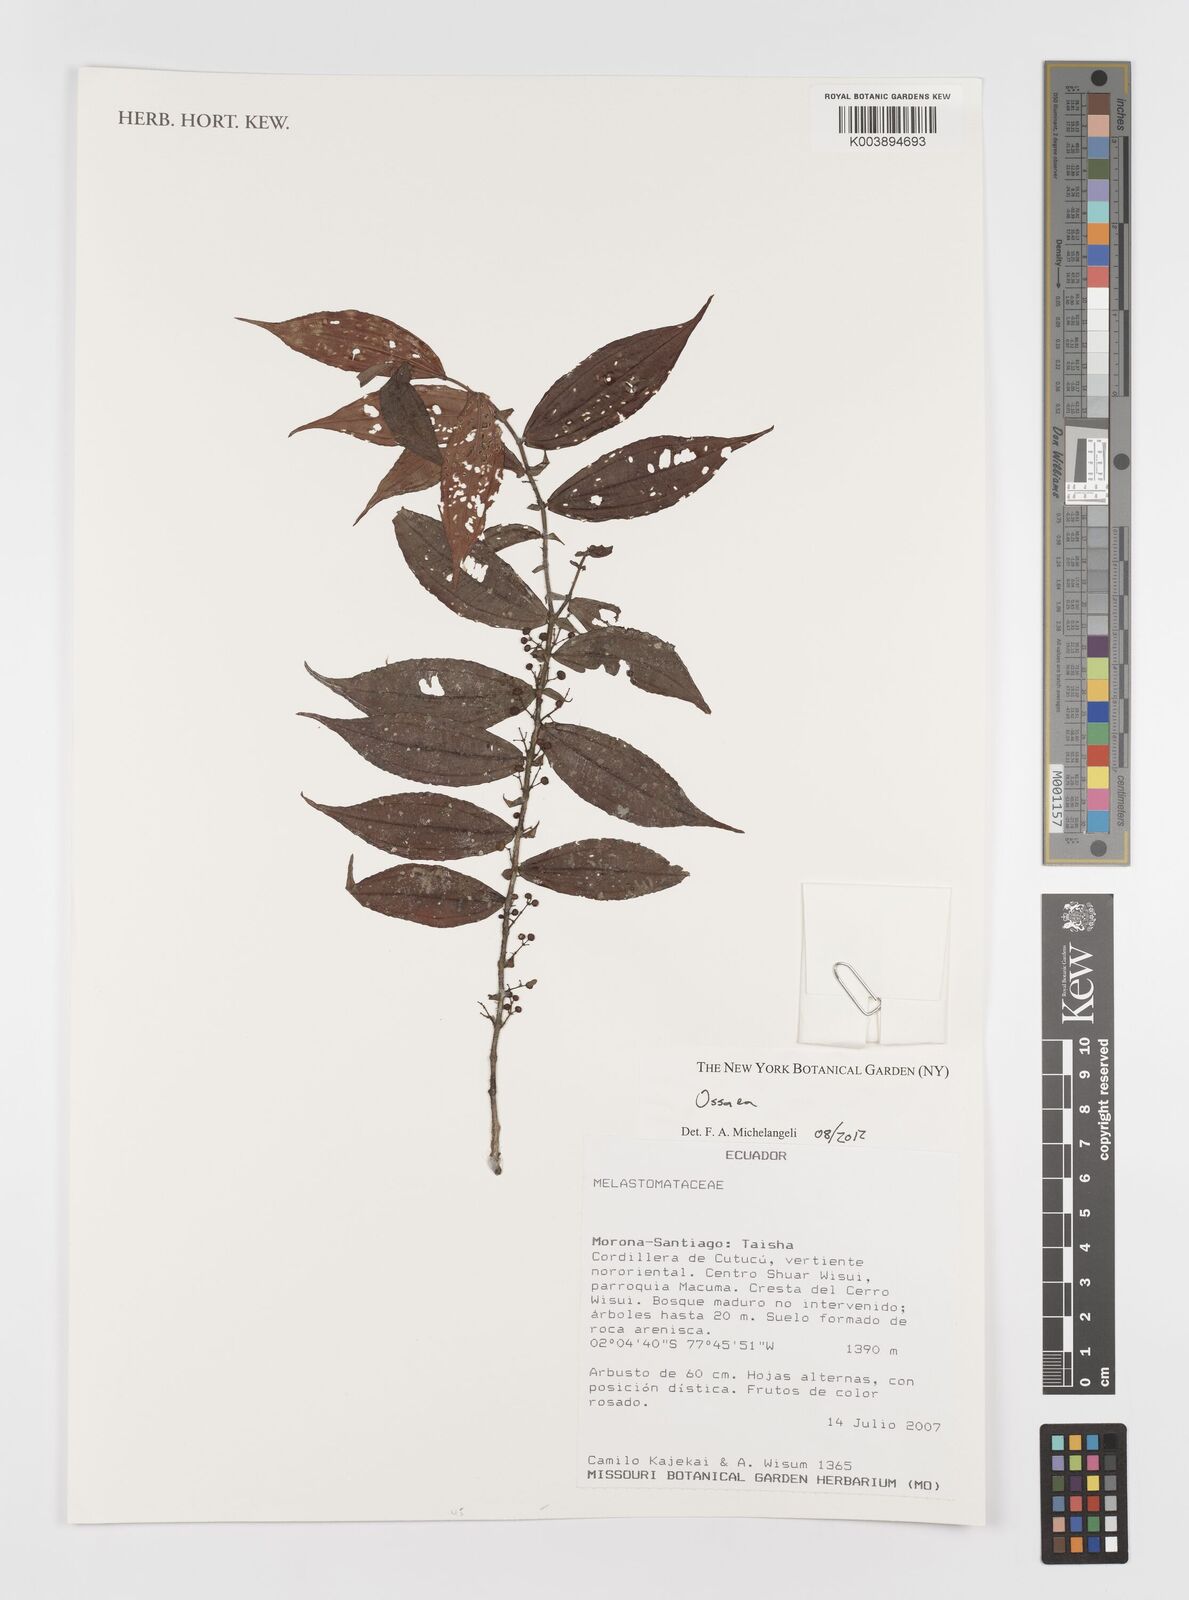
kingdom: Plantae
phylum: Tracheophyta
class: Magnoliopsida
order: Myrtales
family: Melastomataceae
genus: Ossaea
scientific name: Ossaea
